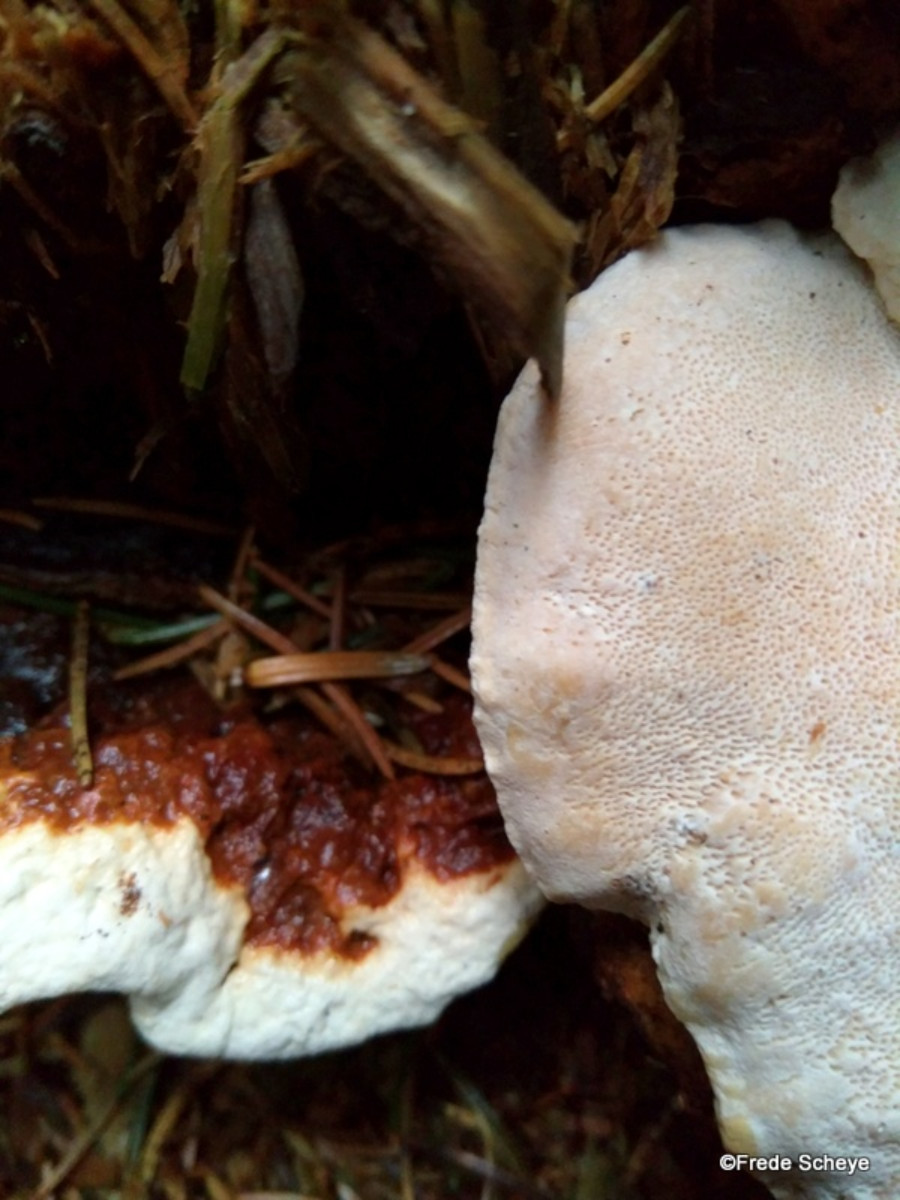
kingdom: Fungi
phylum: Basidiomycota
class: Agaricomycetes
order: Russulales
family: Bondarzewiaceae
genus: Heterobasidion
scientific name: Heterobasidion annosum
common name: almindelig rodfordærver
